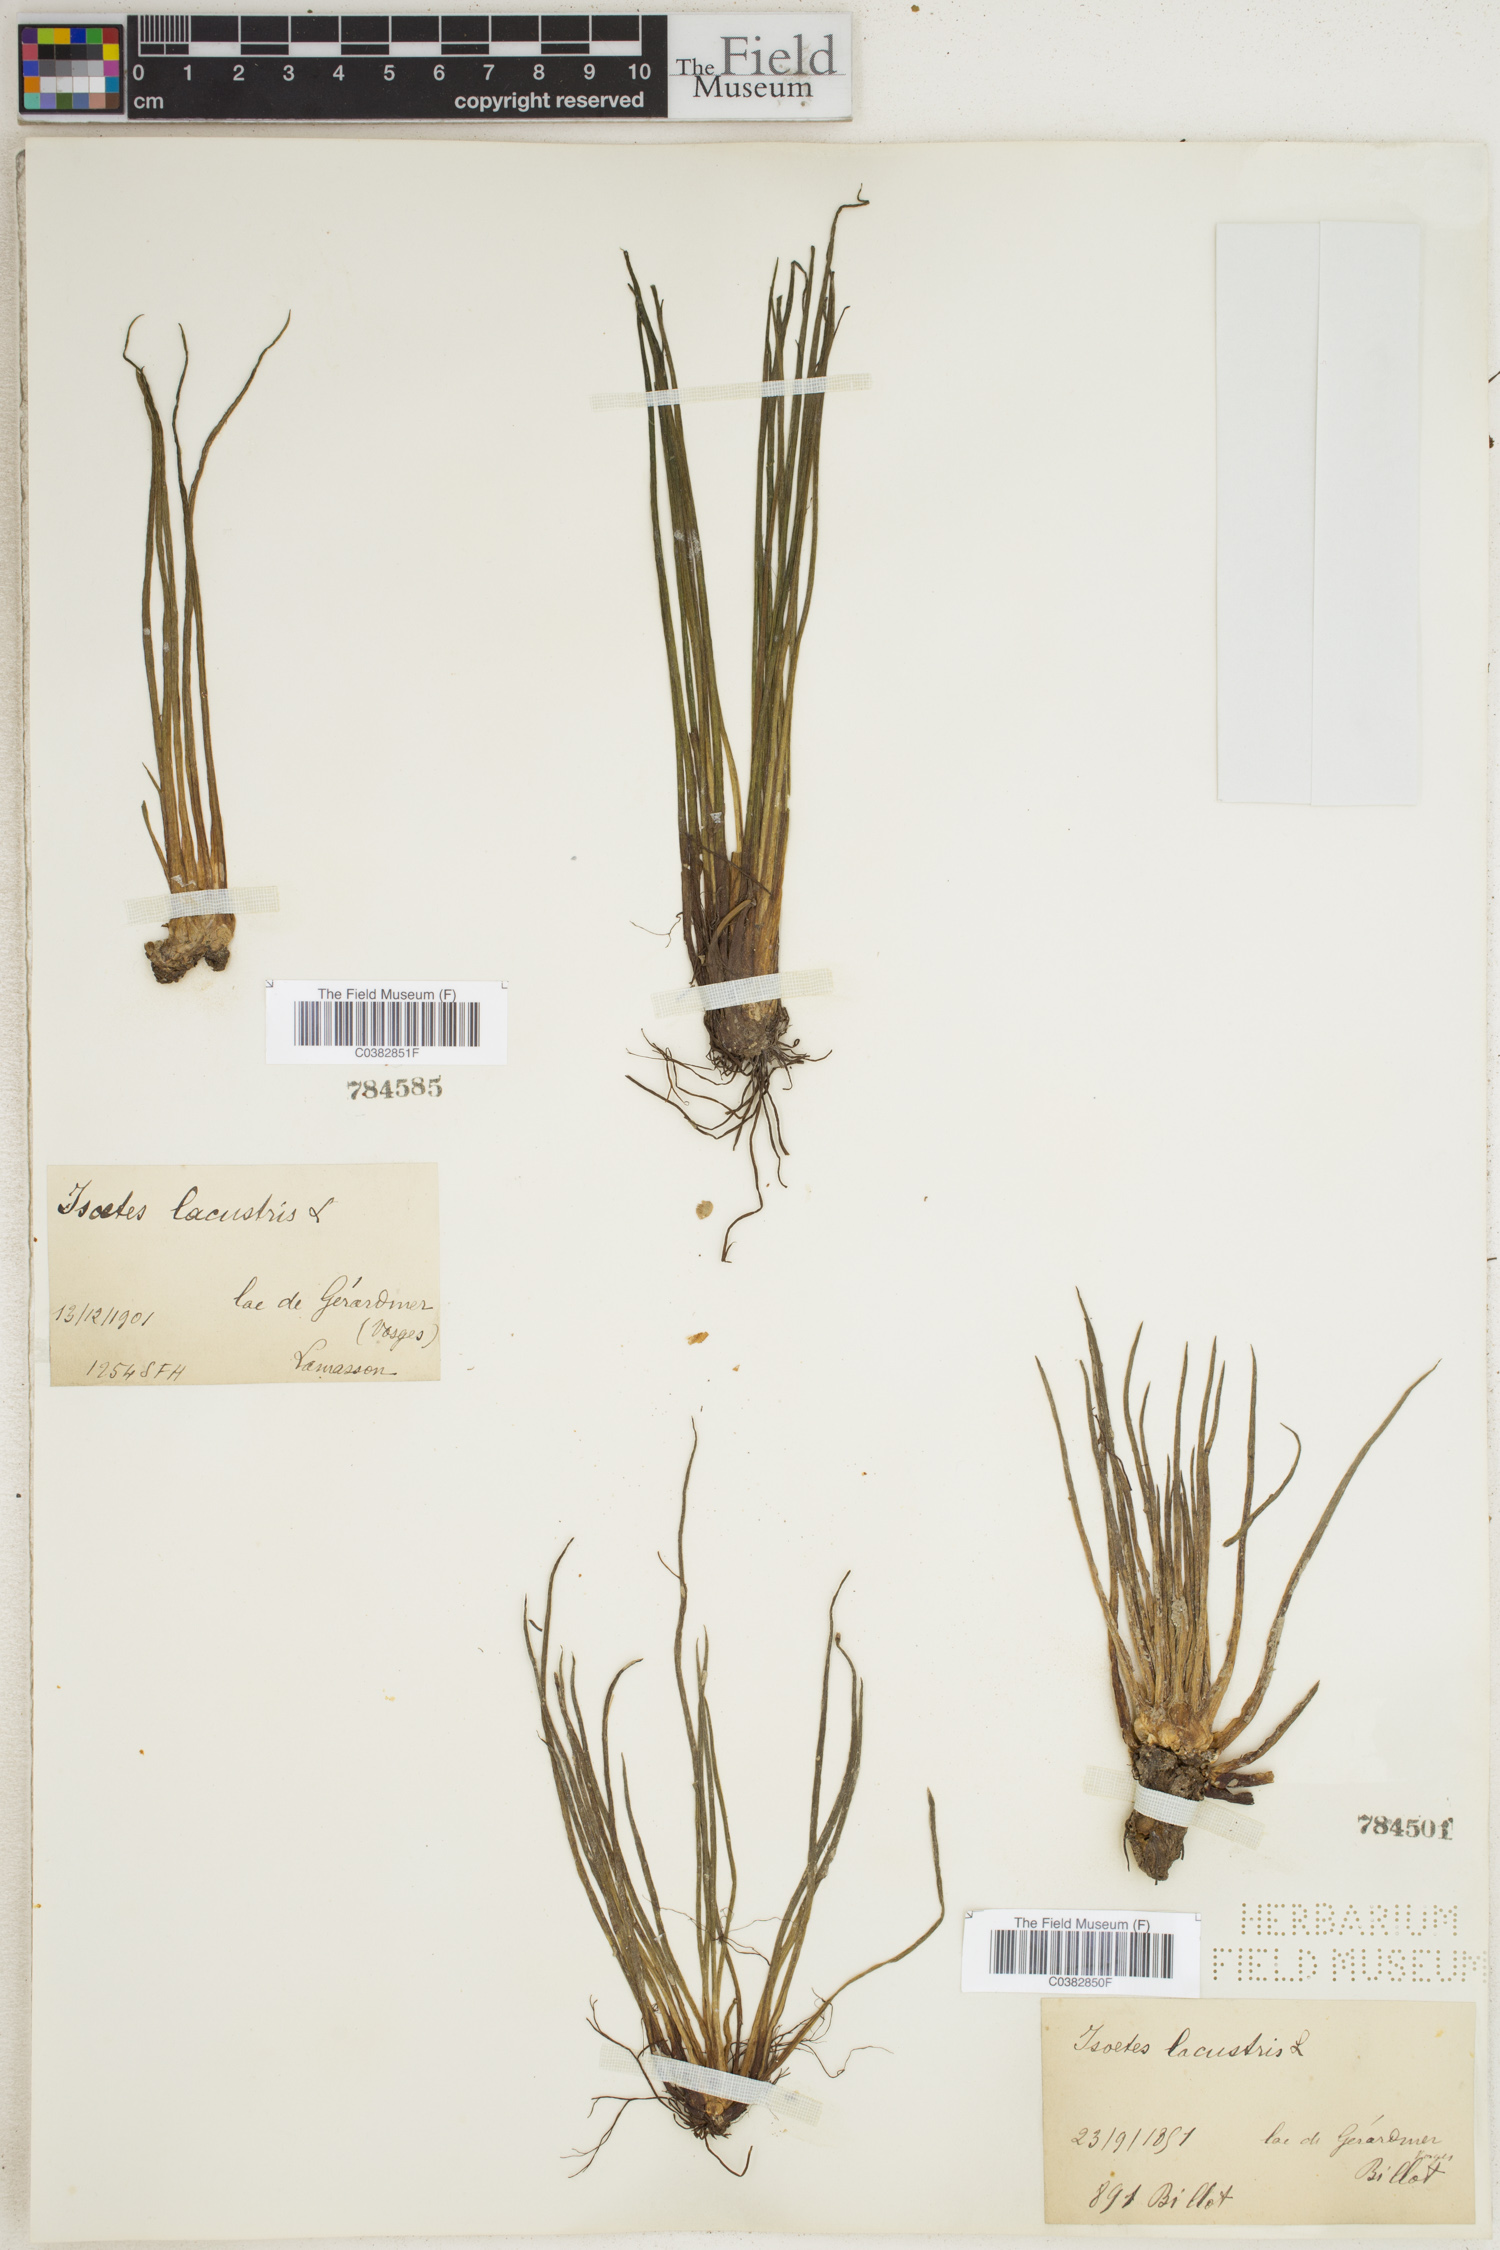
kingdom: Plantae
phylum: Tracheophyta
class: Lycopodiopsida
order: Isoetales
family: Isoetaceae
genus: Isoetes
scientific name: Isoetes lacustris
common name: Common quillwort
